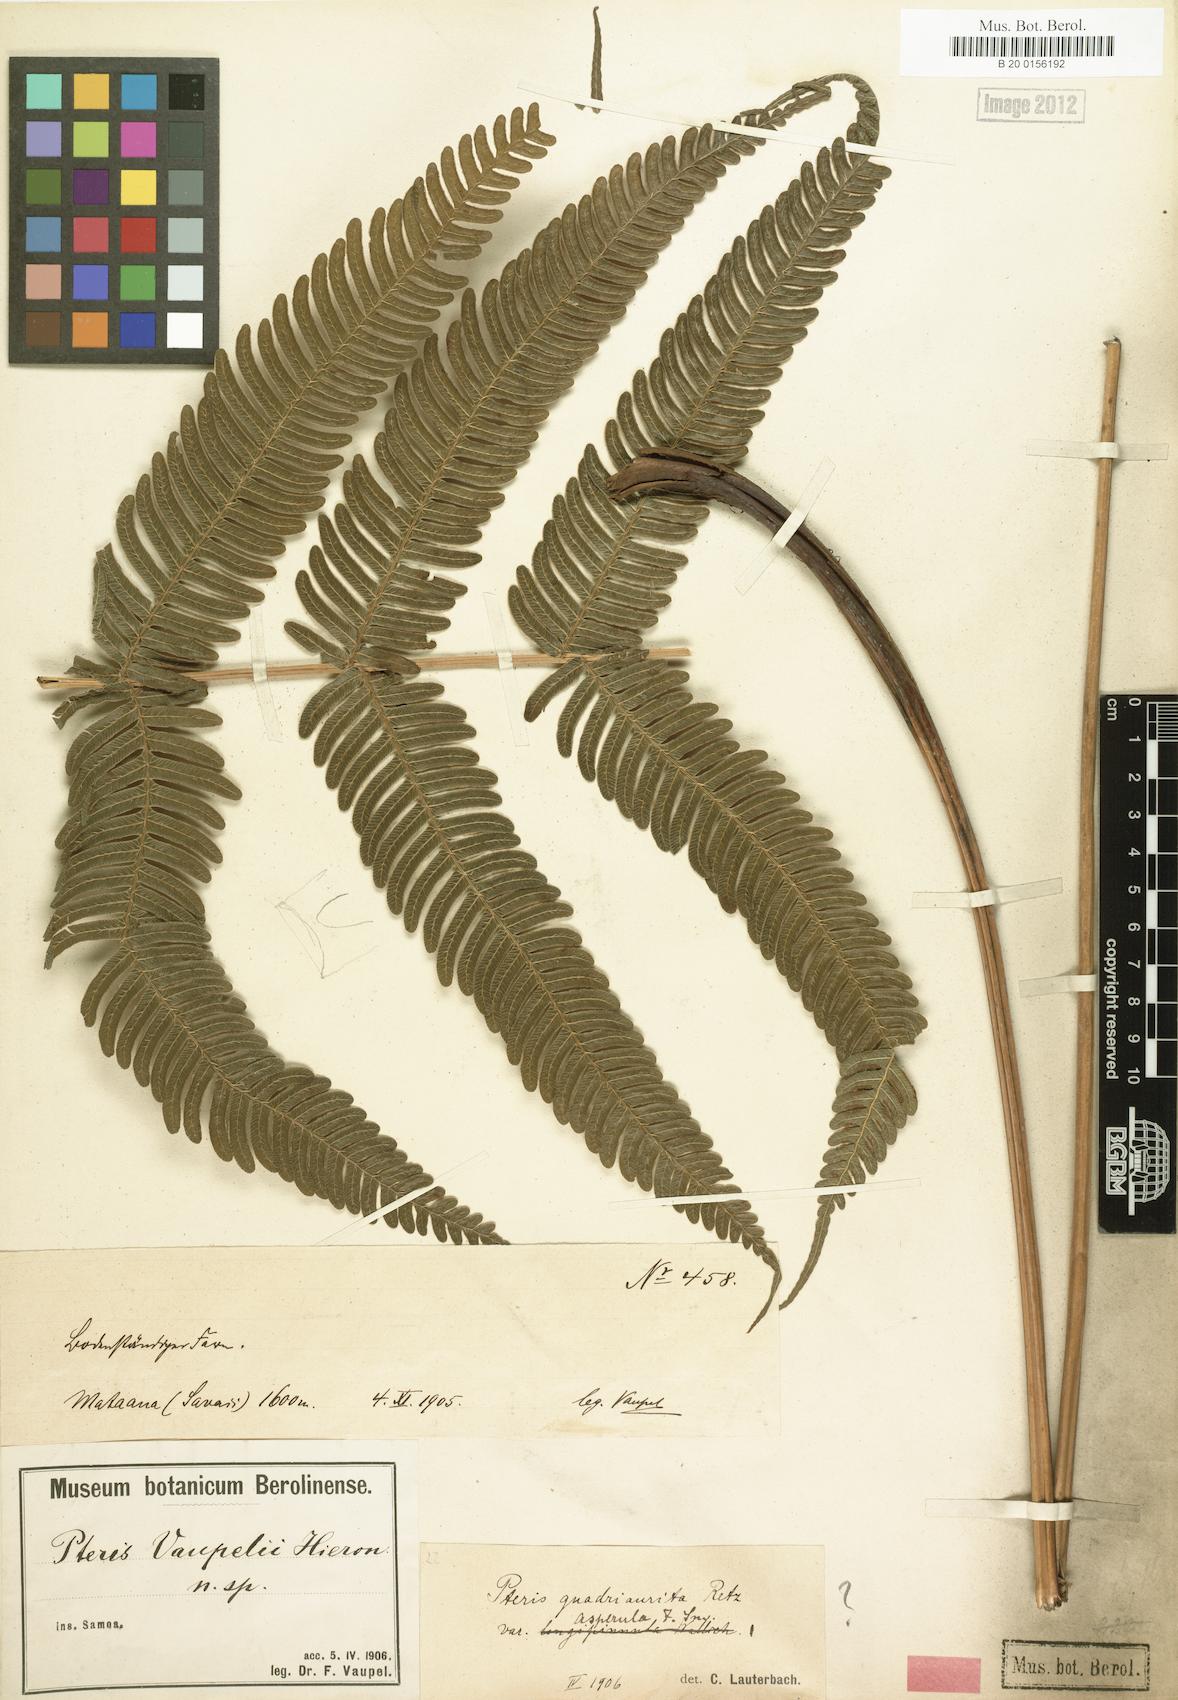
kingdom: Plantae
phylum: Tracheophyta
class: Polypodiopsida
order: Polypodiales
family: Pteridaceae
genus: Pteris
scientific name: Pteris vaupelii
